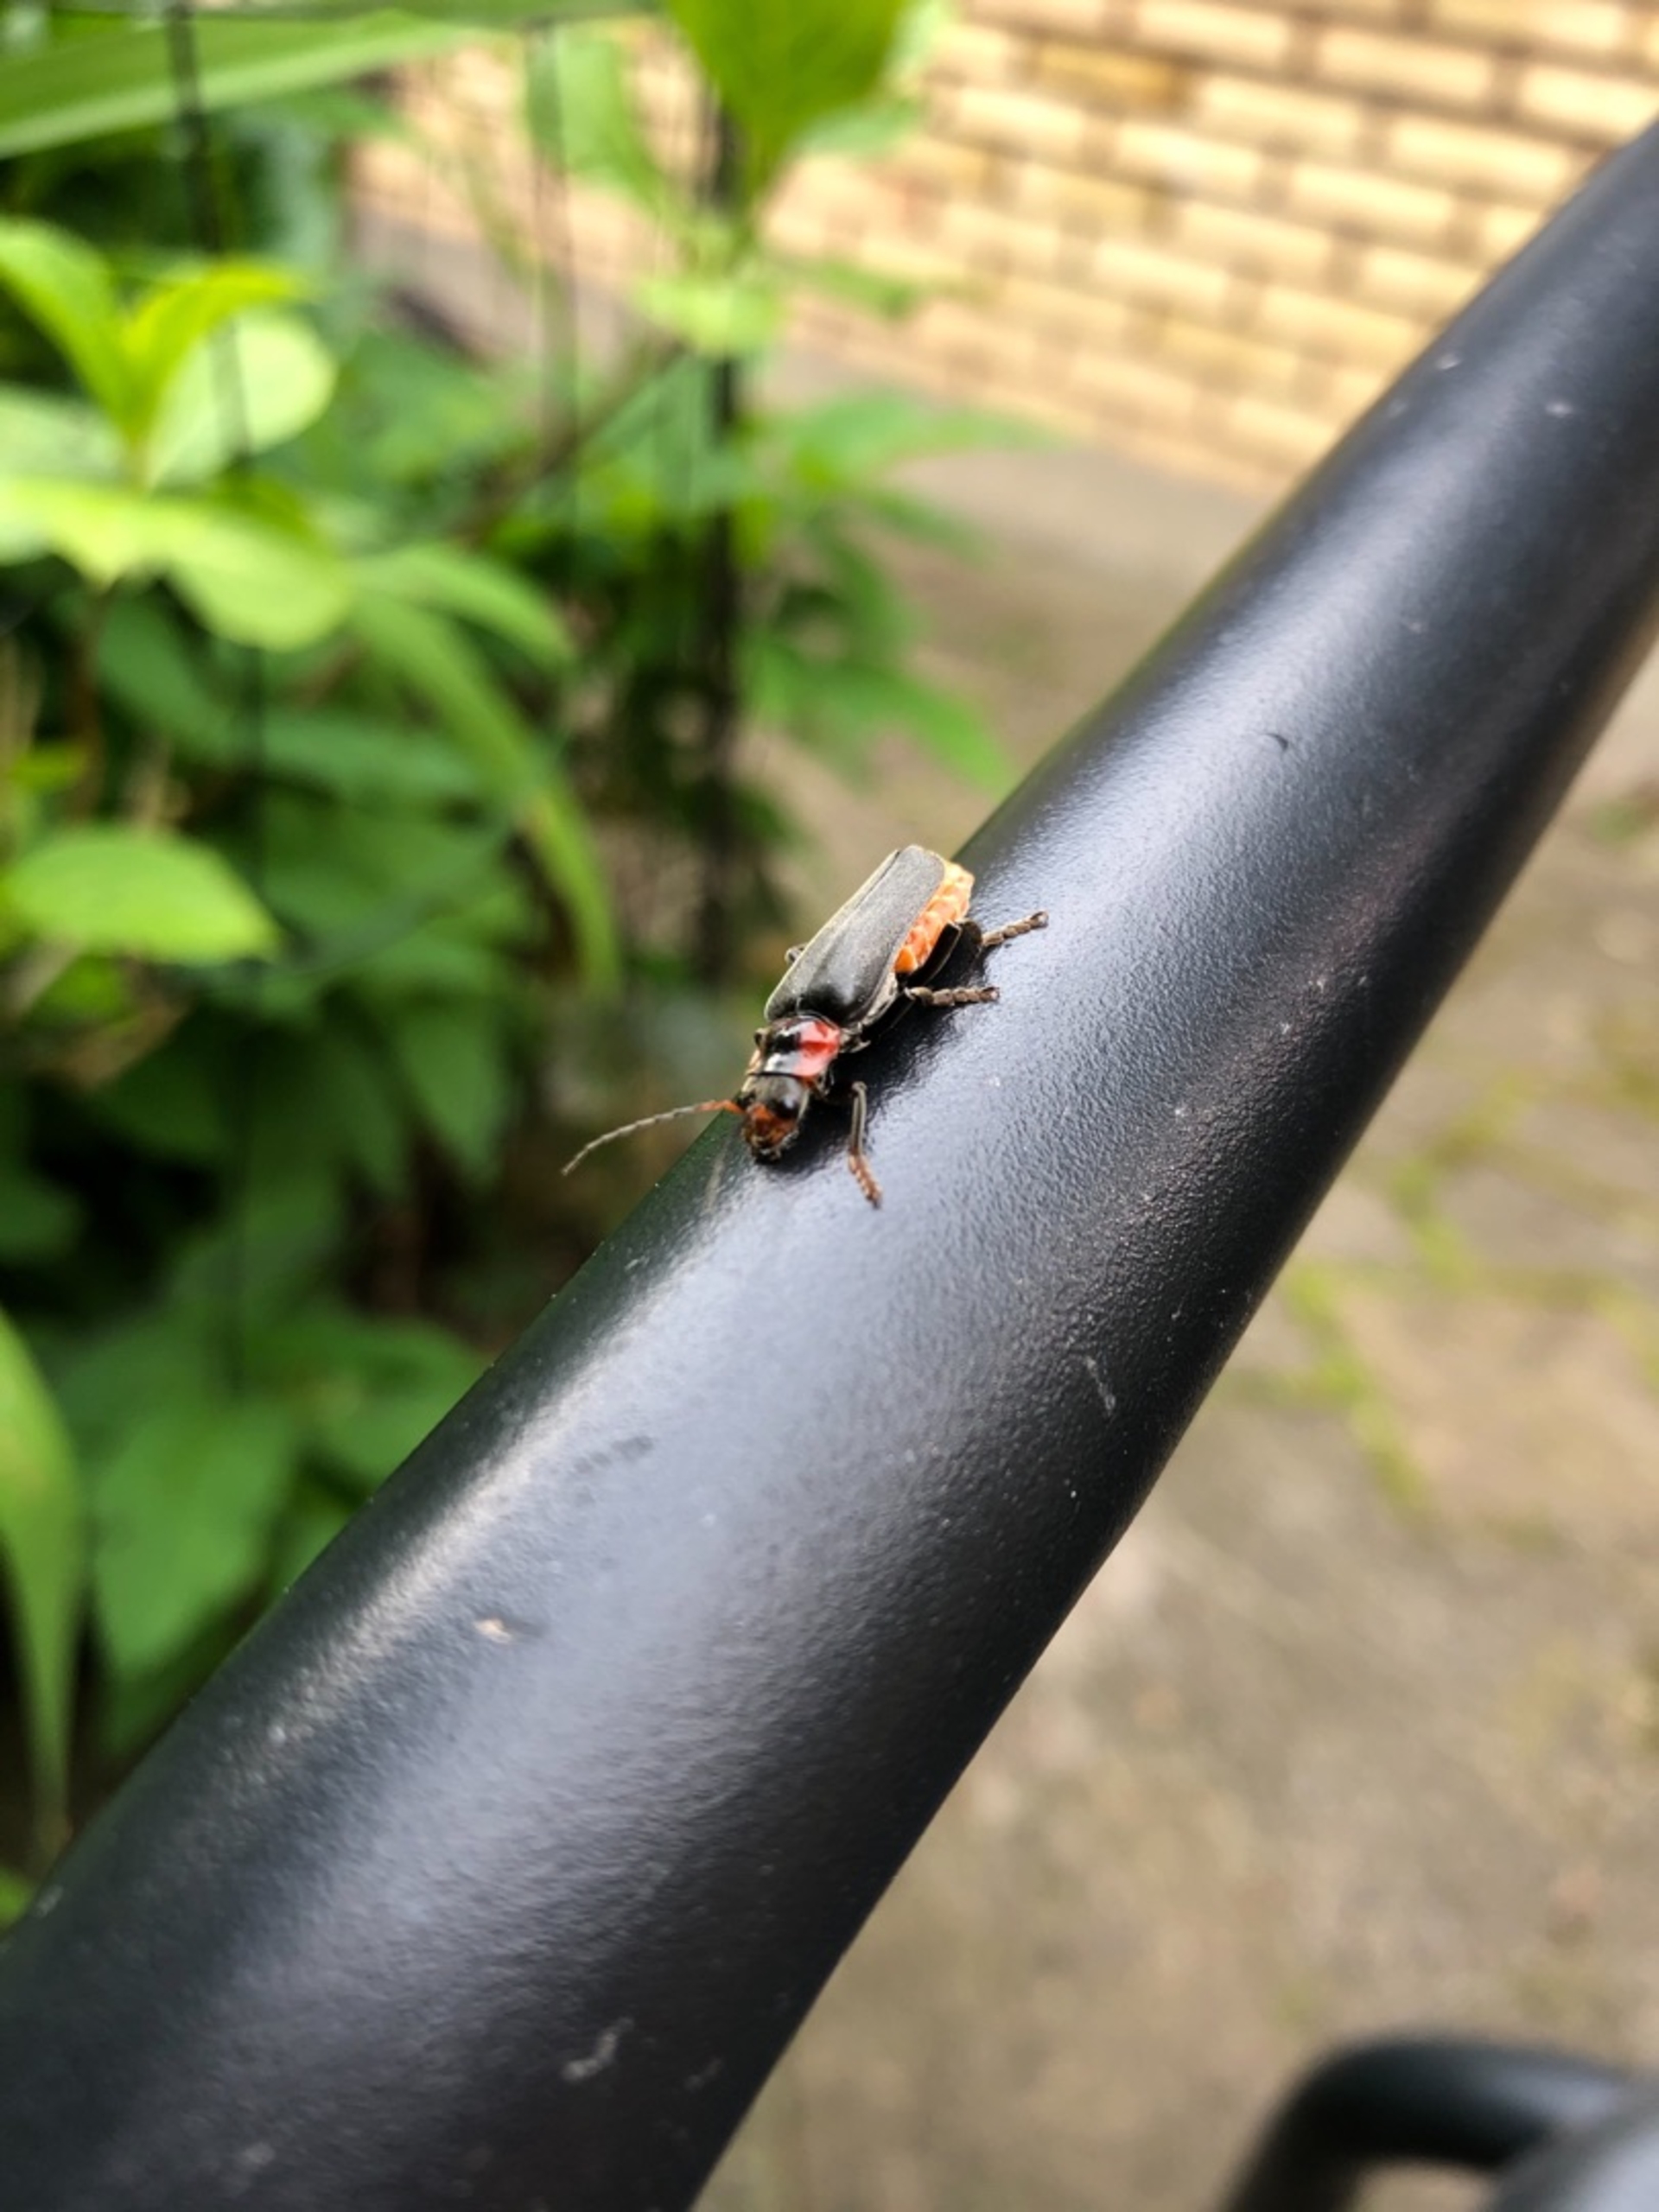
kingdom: Animalia
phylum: Arthropoda
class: Insecta
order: Coleoptera
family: Cantharidae
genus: Cantharis
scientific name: Cantharis fusca
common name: Stor blødvinge
